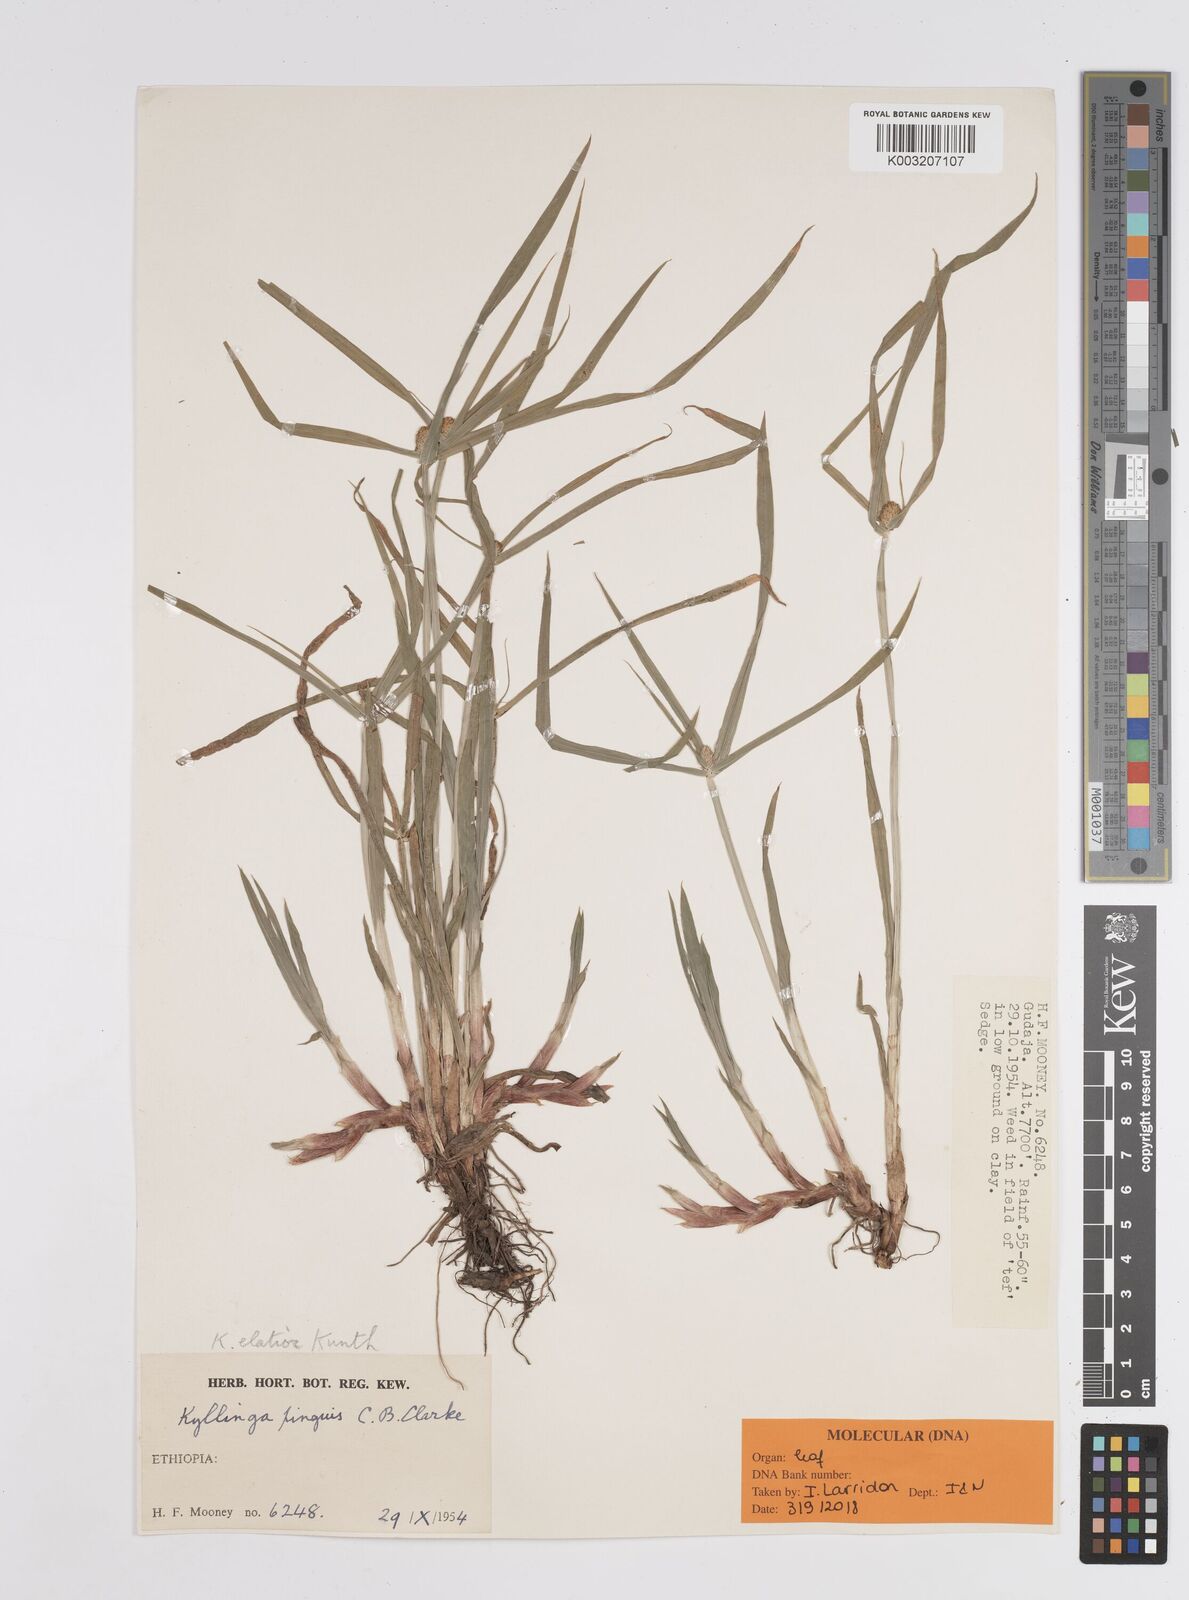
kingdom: Plantae
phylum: Tracheophyta
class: Liliopsida
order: Poales
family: Cyperaceae
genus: Cyperus
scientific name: Cyperus
